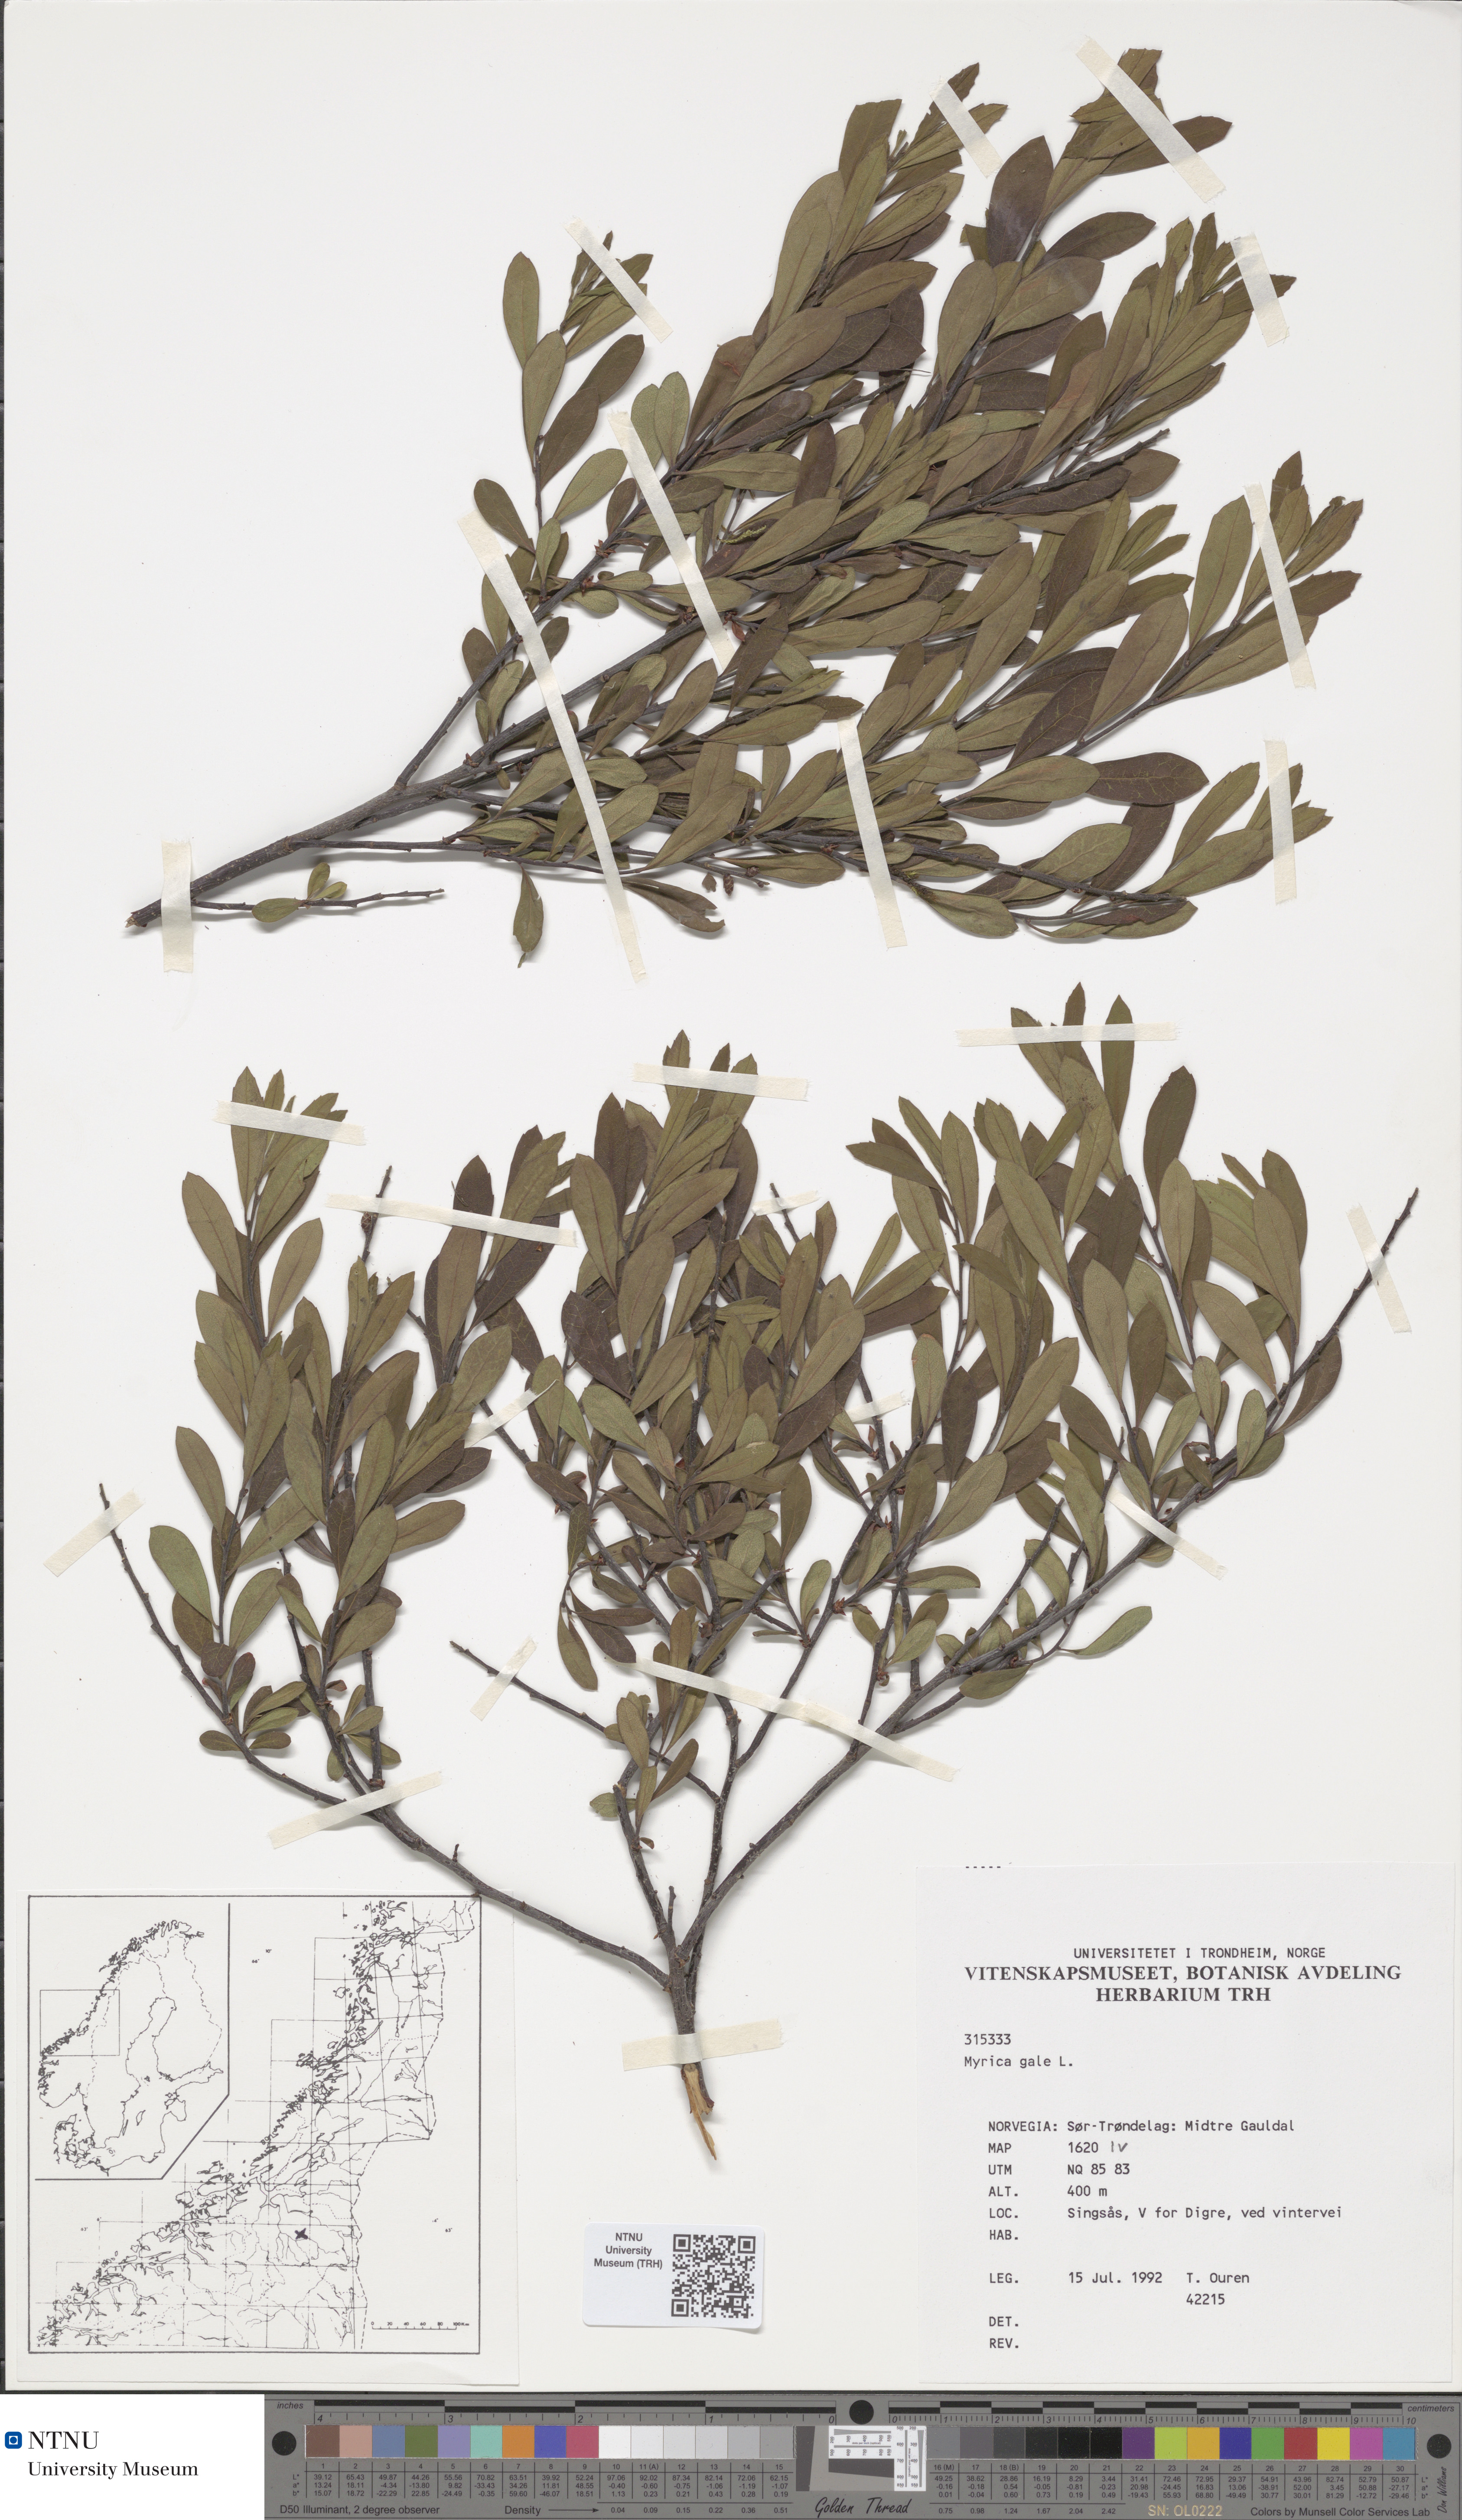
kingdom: Plantae
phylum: Tracheophyta
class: Magnoliopsida
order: Fagales
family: Myricaceae
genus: Myrica
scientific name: Myrica gale
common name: Sweet gale
